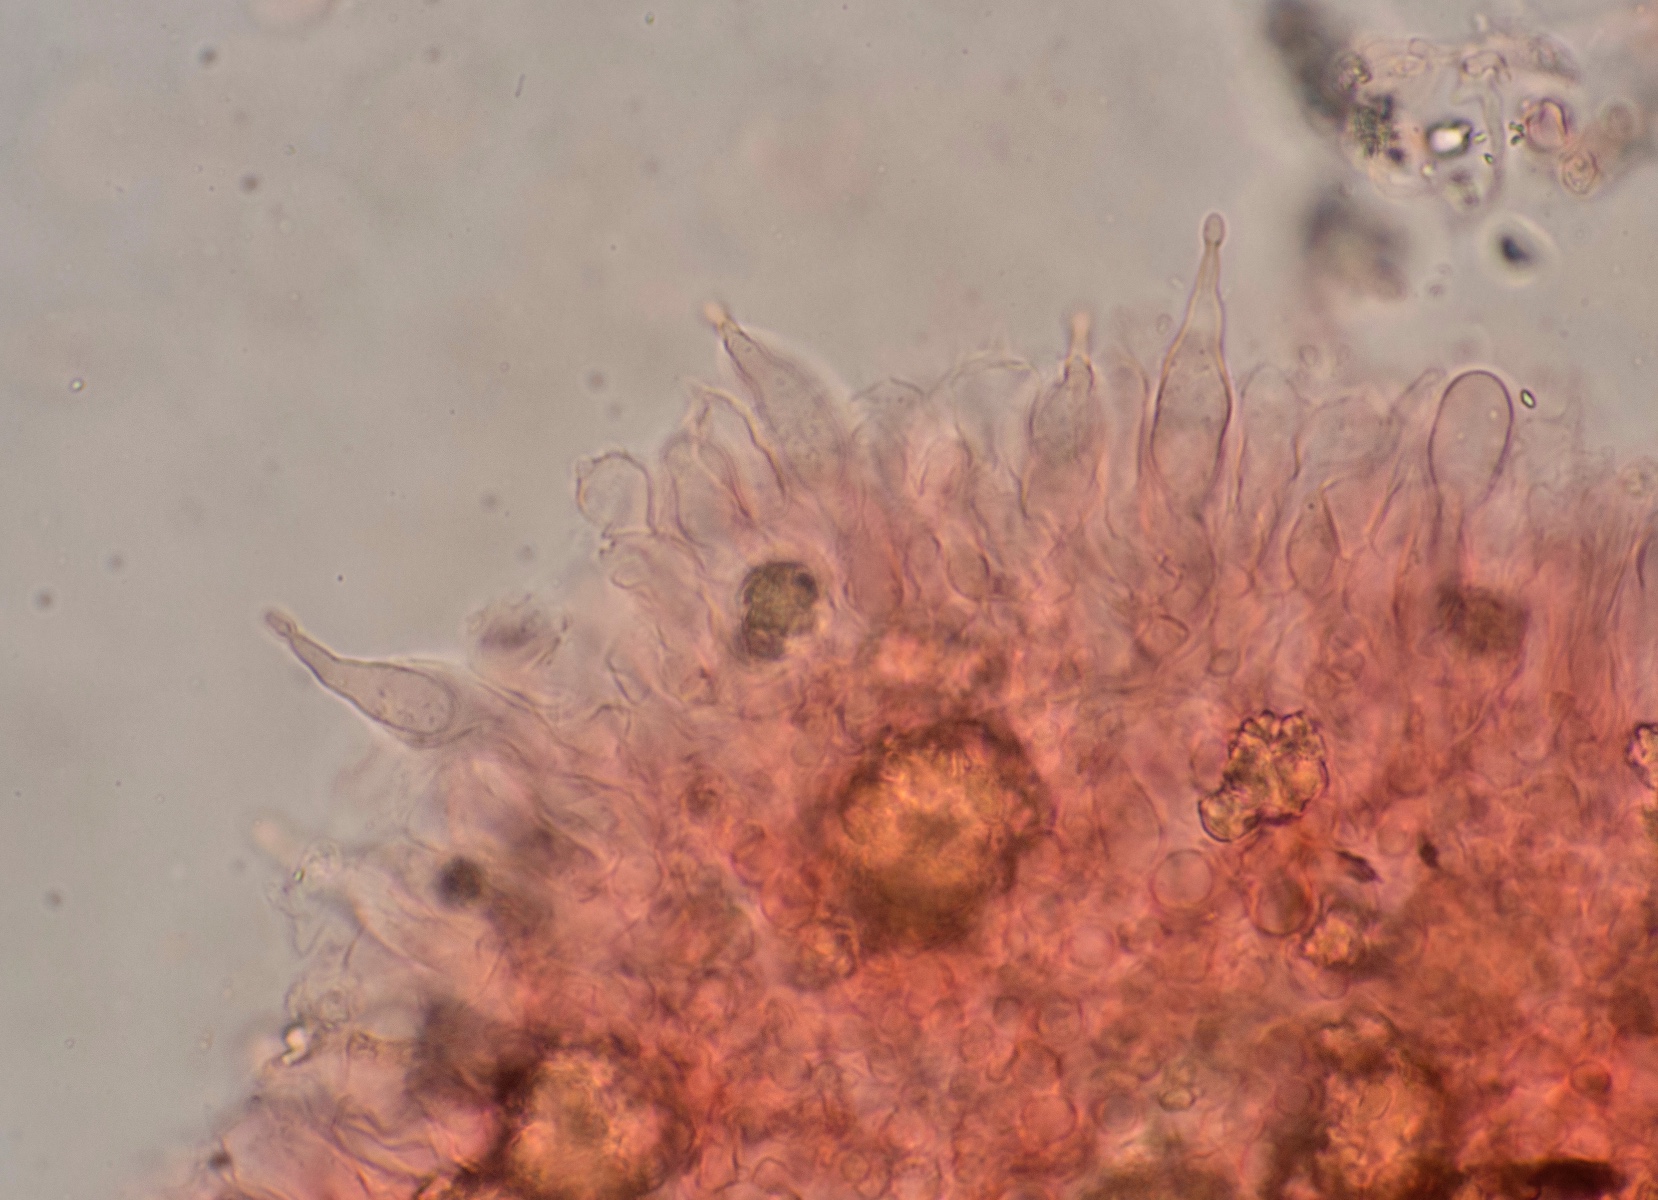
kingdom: Fungi
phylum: Basidiomycota
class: Agaricomycetes
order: Agaricales
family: Pleurotaceae
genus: Hohenbuehelia
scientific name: Hohenbuehelia cyphelliformis
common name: urte-filthat
